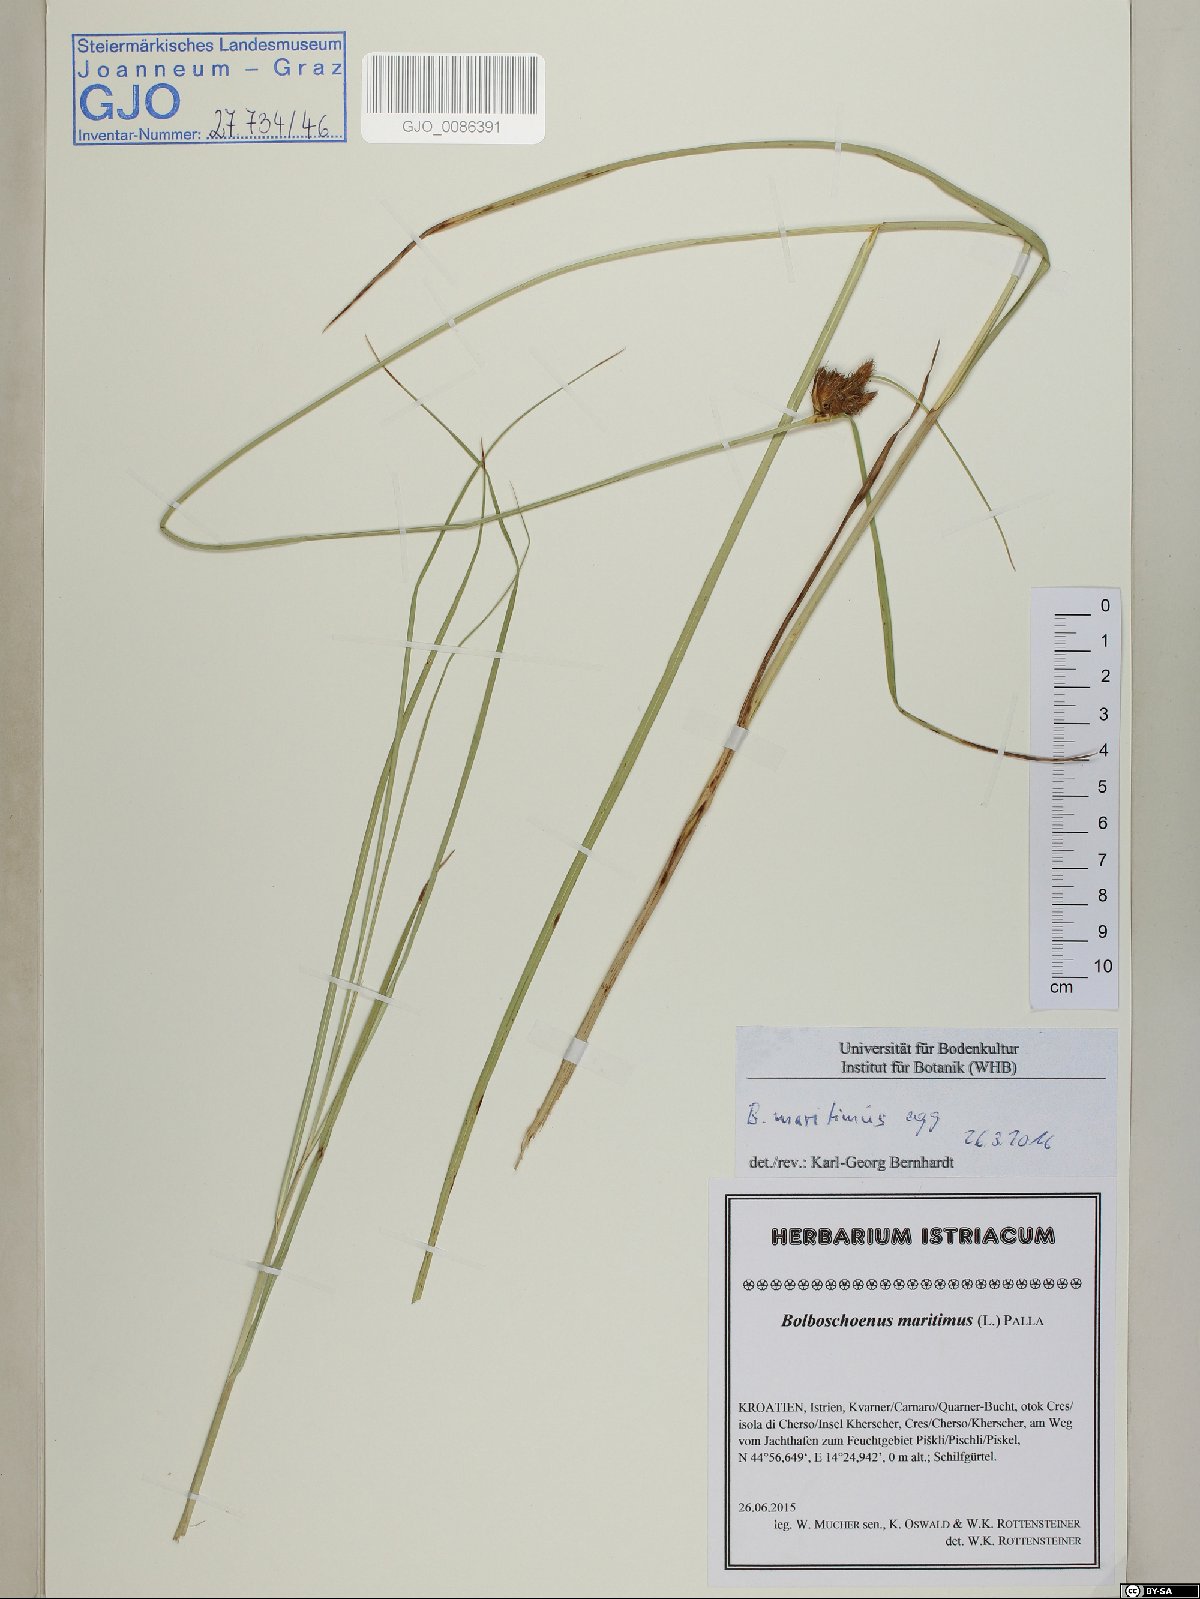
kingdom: Plantae
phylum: Tracheophyta
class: Liliopsida
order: Poales
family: Cyperaceae
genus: Bolboschoenus
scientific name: Bolboschoenus maritimus
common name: Sea club-rush
